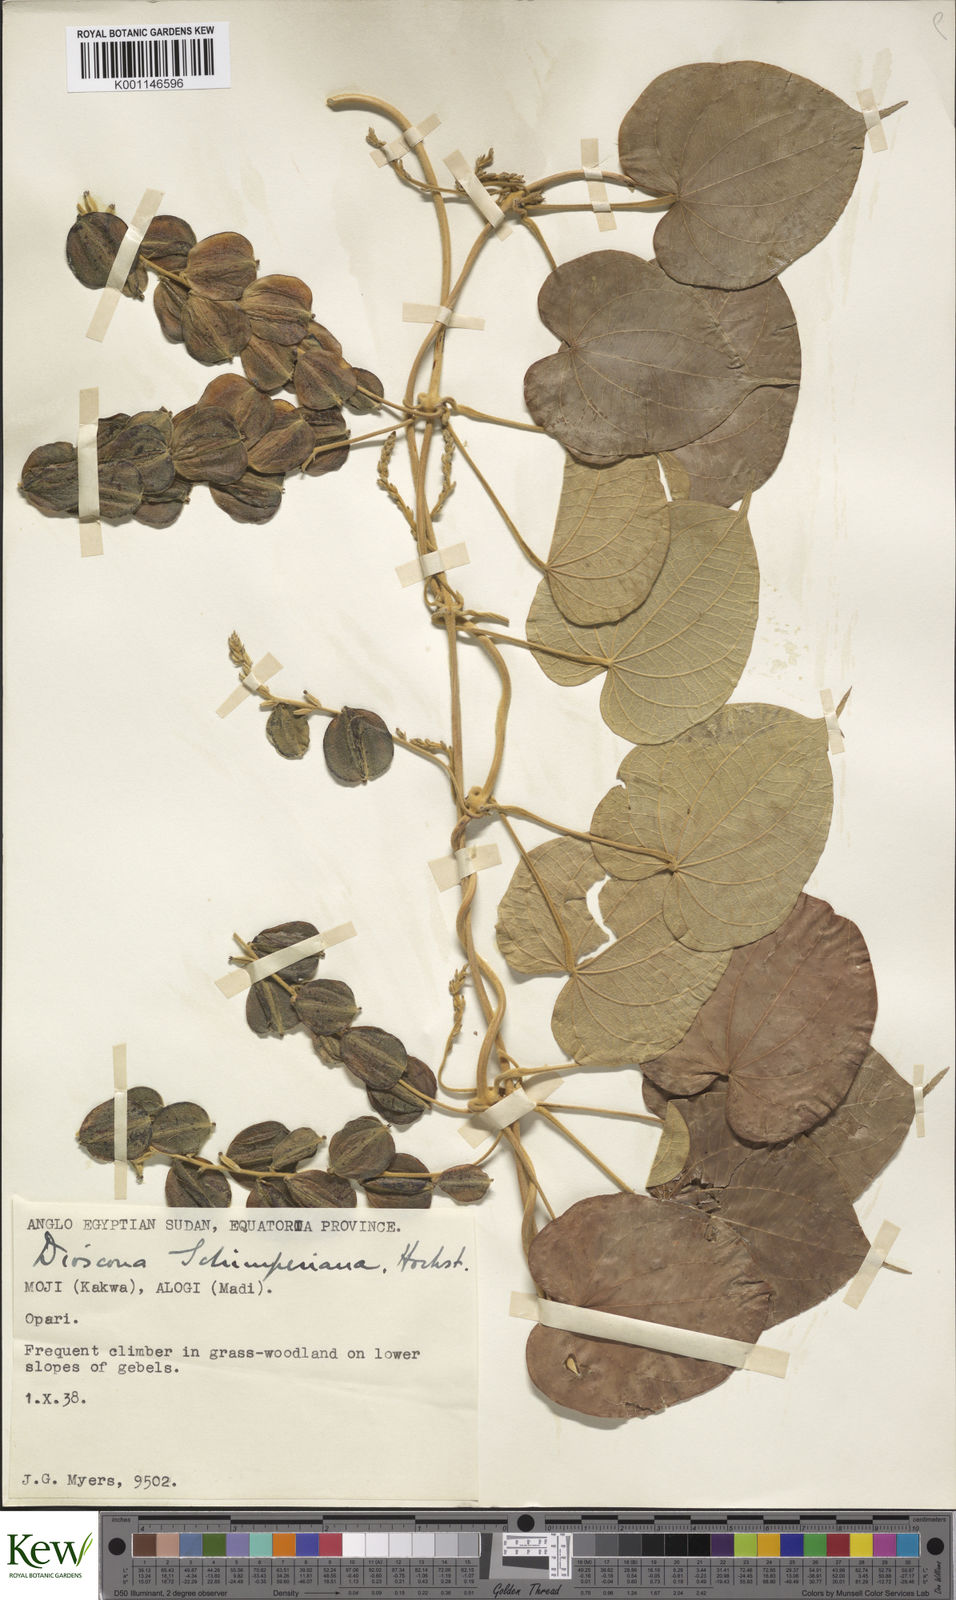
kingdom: Plantae
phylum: Tracheophyta
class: Liliopsida
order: Dioscoreales
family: Dioscoreaceae
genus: Dioscorea
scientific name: Dioscorea schimperiana
